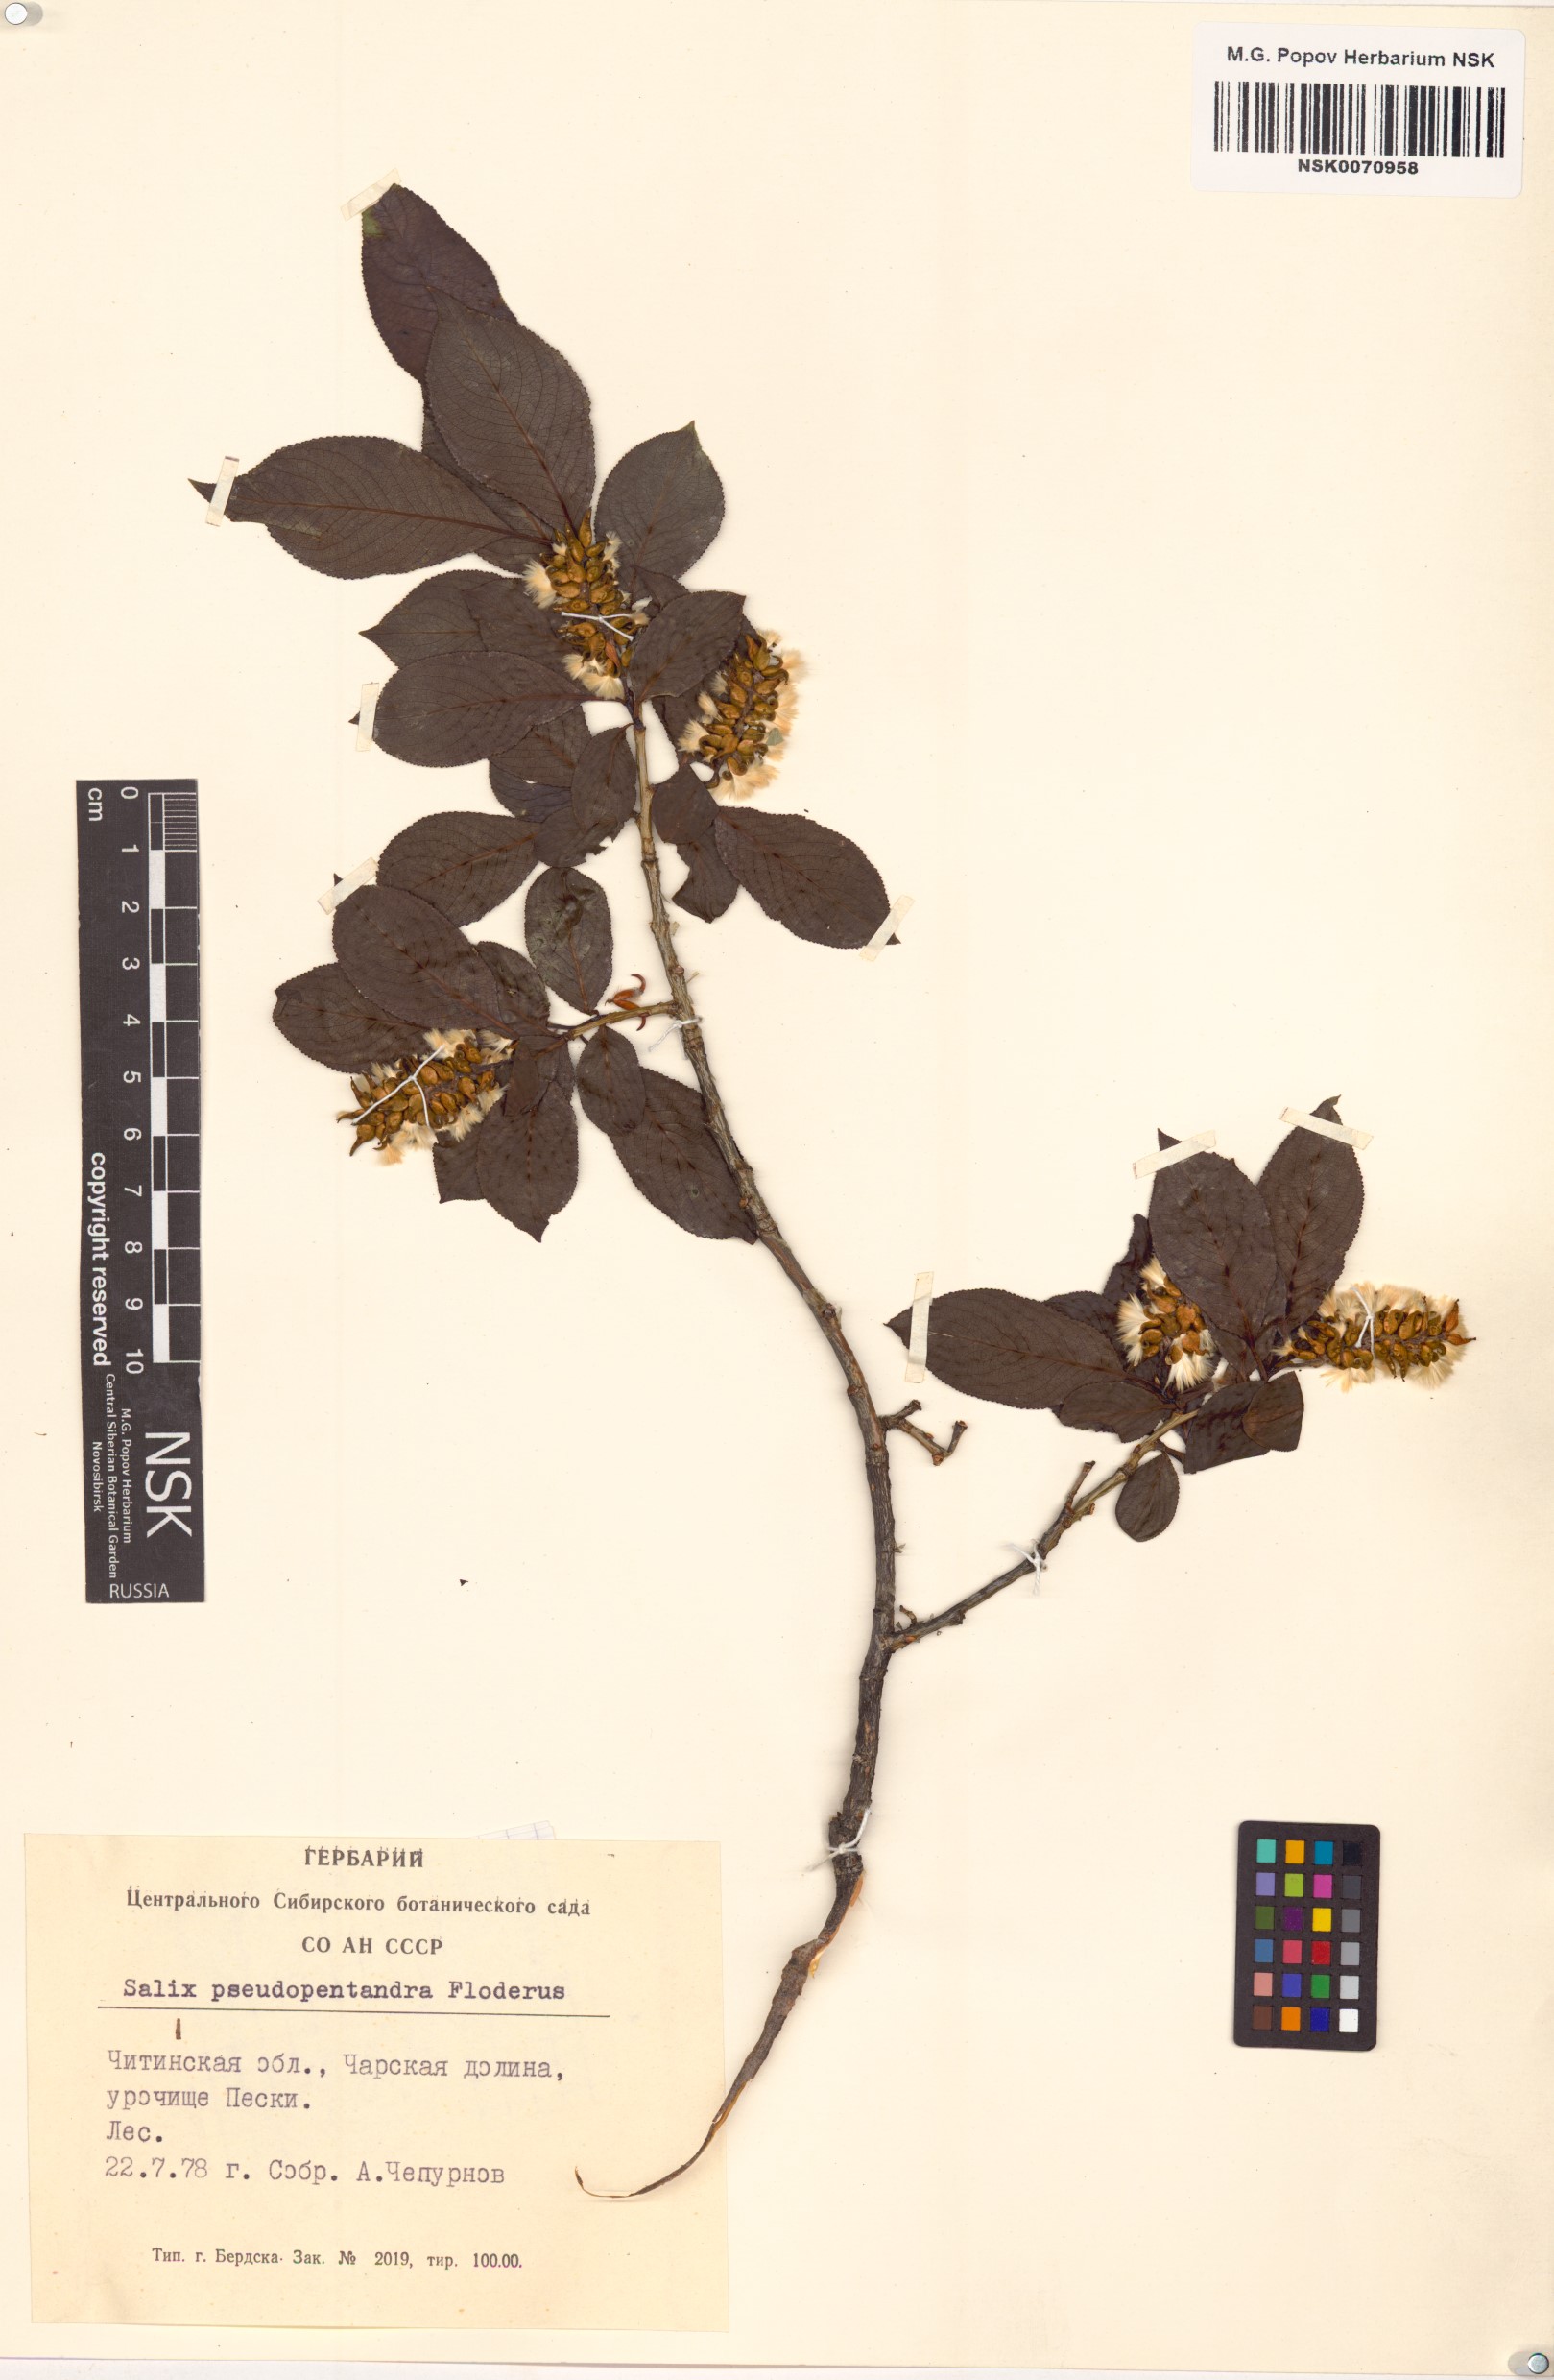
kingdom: Plantae
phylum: Tracheophyta
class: Magnoliopsida
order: Malpighiales
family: Salicaceae
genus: Salix
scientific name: Salix pseudopentandra
